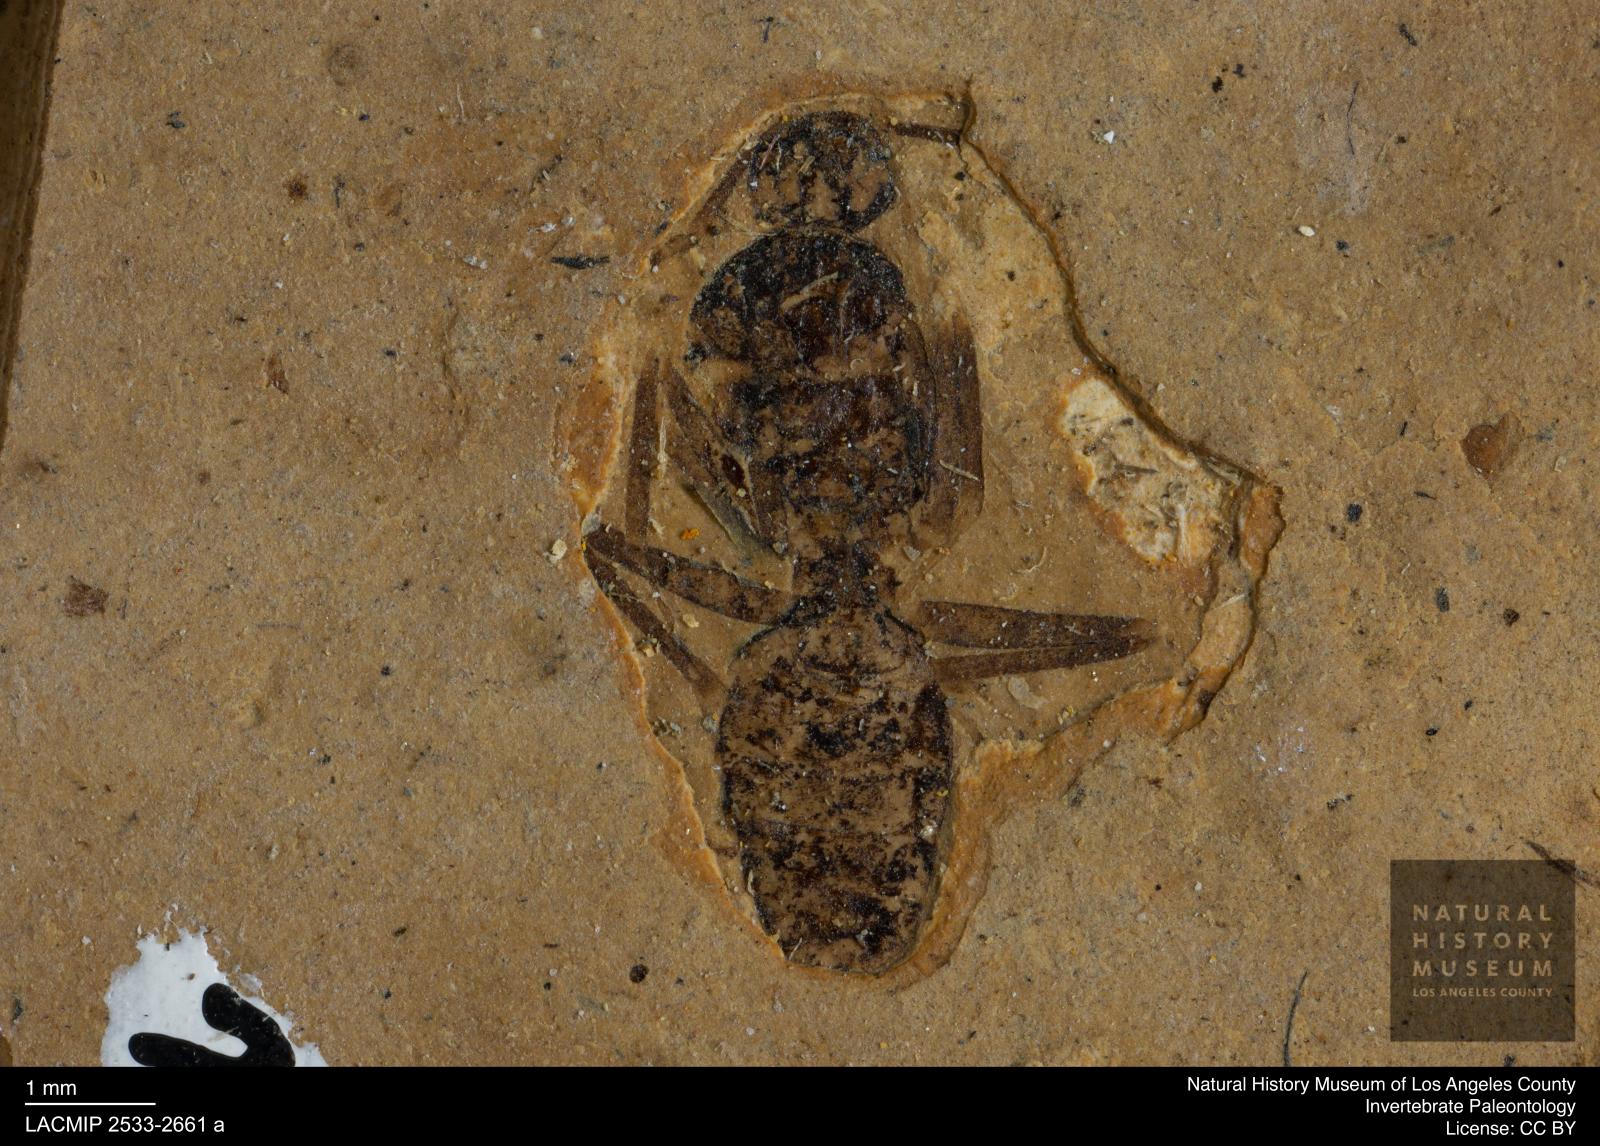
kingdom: Animalia
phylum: Arthropoda
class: Insecta
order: Hymenoptera
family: Formicidae
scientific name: Formicidae
